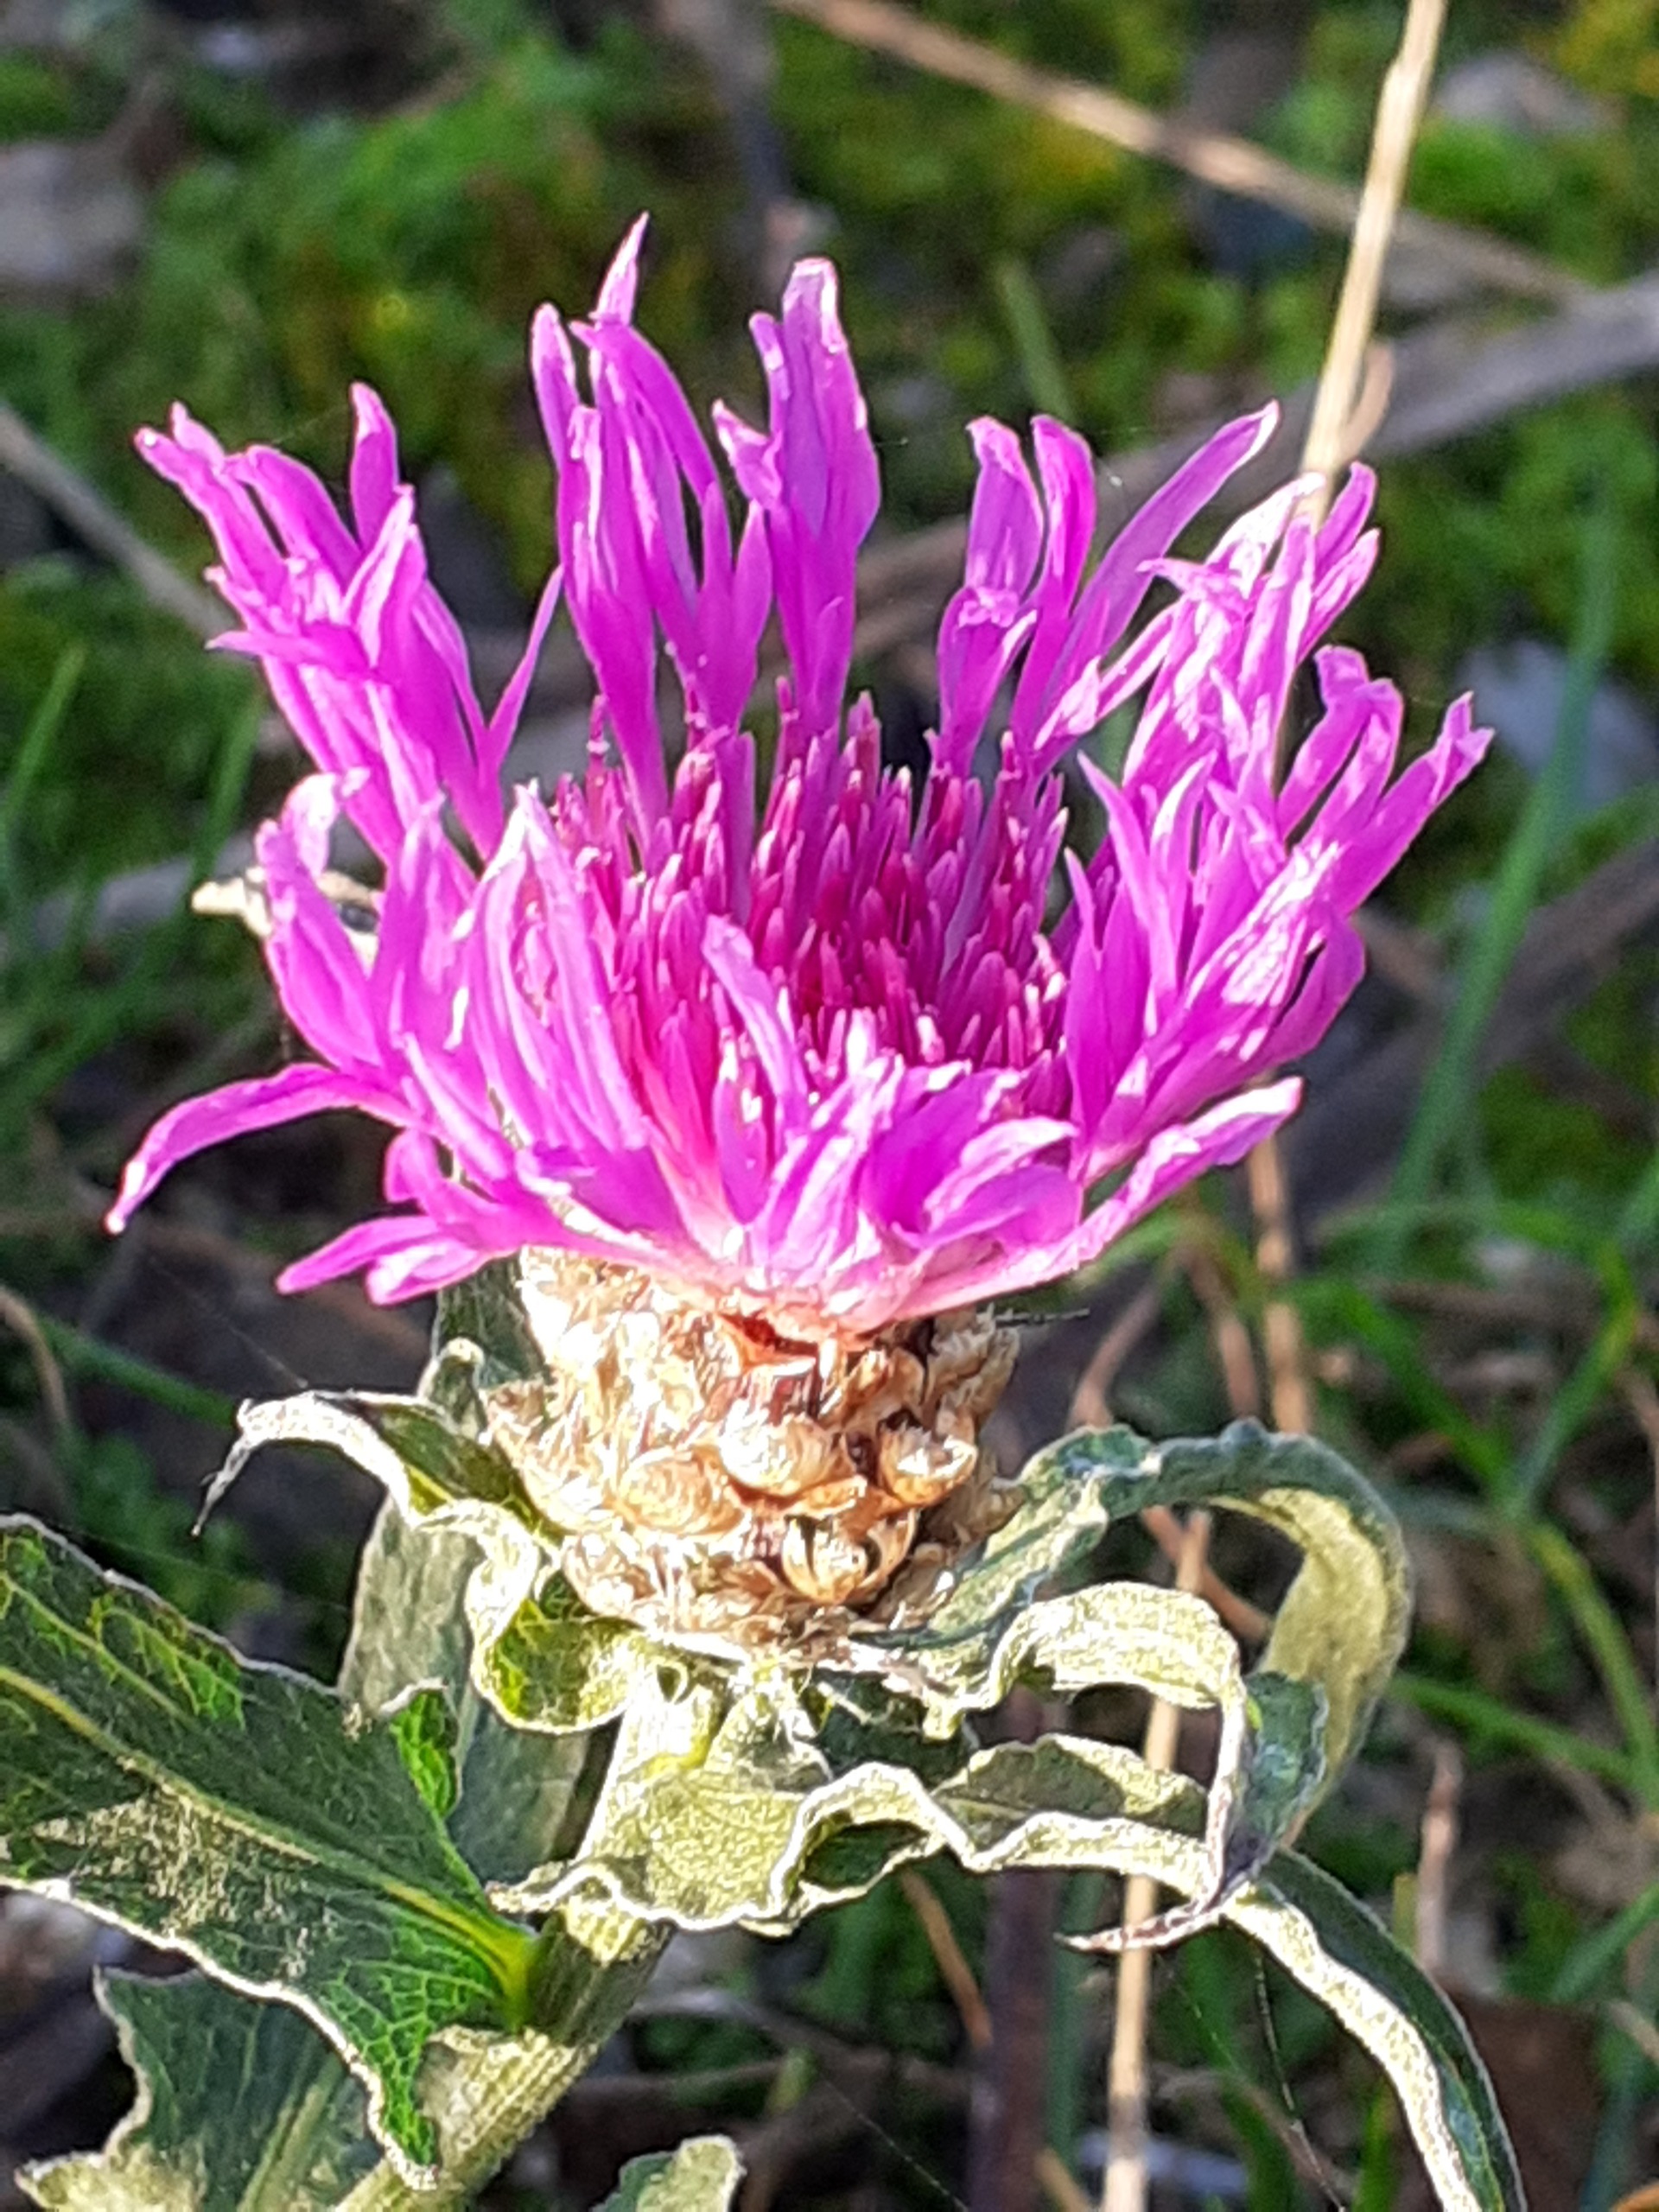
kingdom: Plantae
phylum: Tracheophyta
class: Magnoliopsida
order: Asterales
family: Asteraceae
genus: Centaurea
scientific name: Centaurea jacea
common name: Almindelig knopurt
